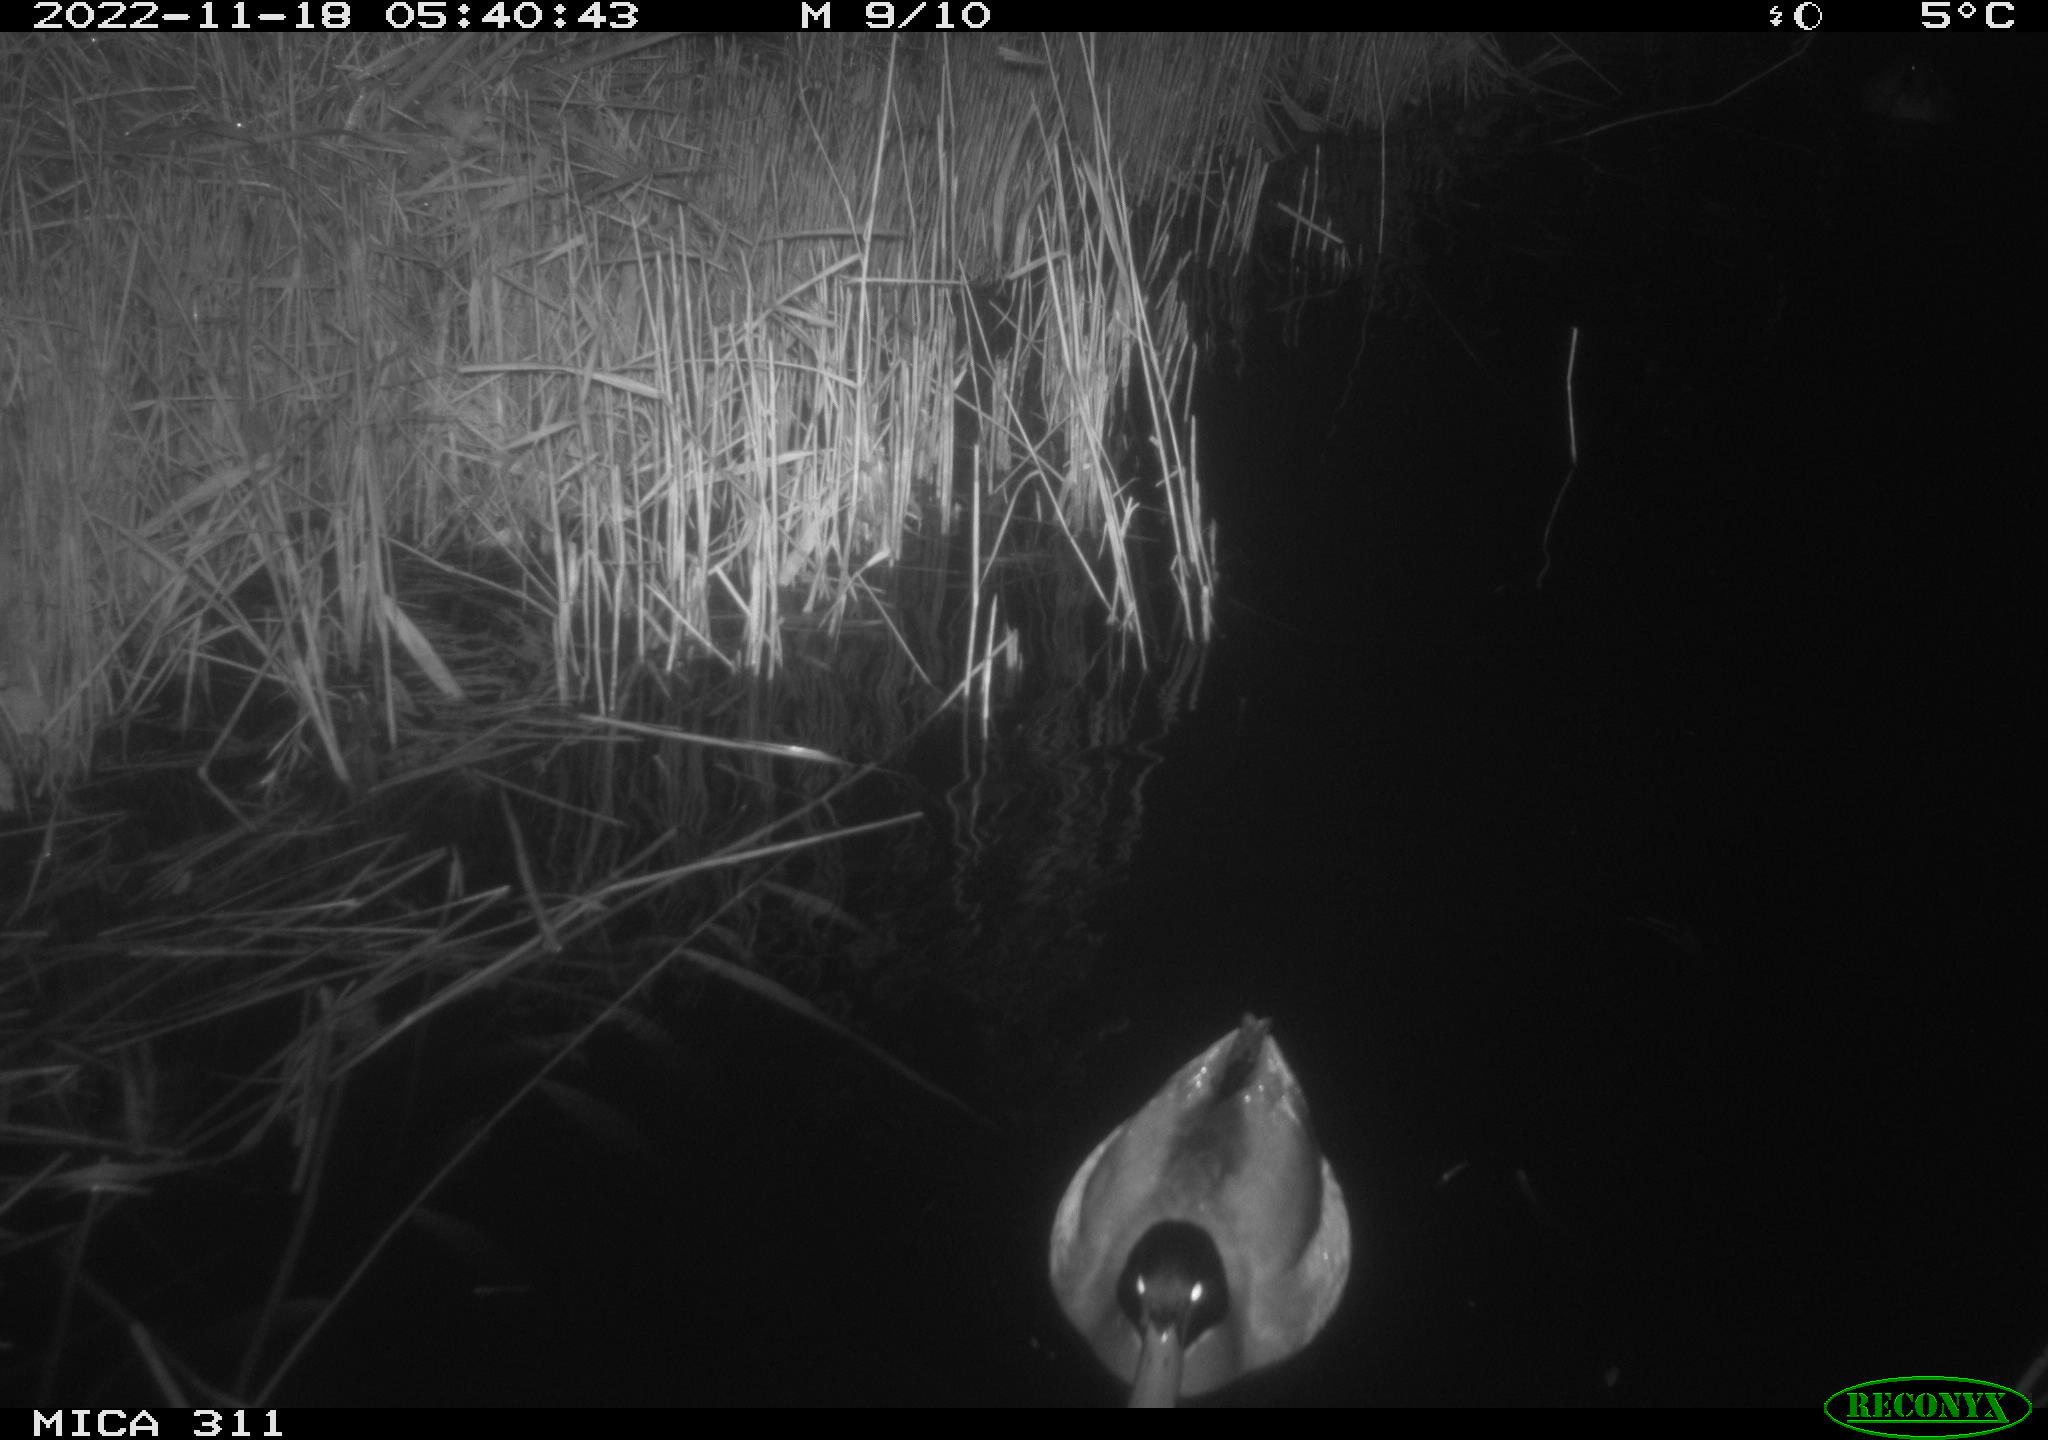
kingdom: Animalia
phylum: Chordata
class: Aves
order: Anseriformes
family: Anatidae
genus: Anas
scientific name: Anas
